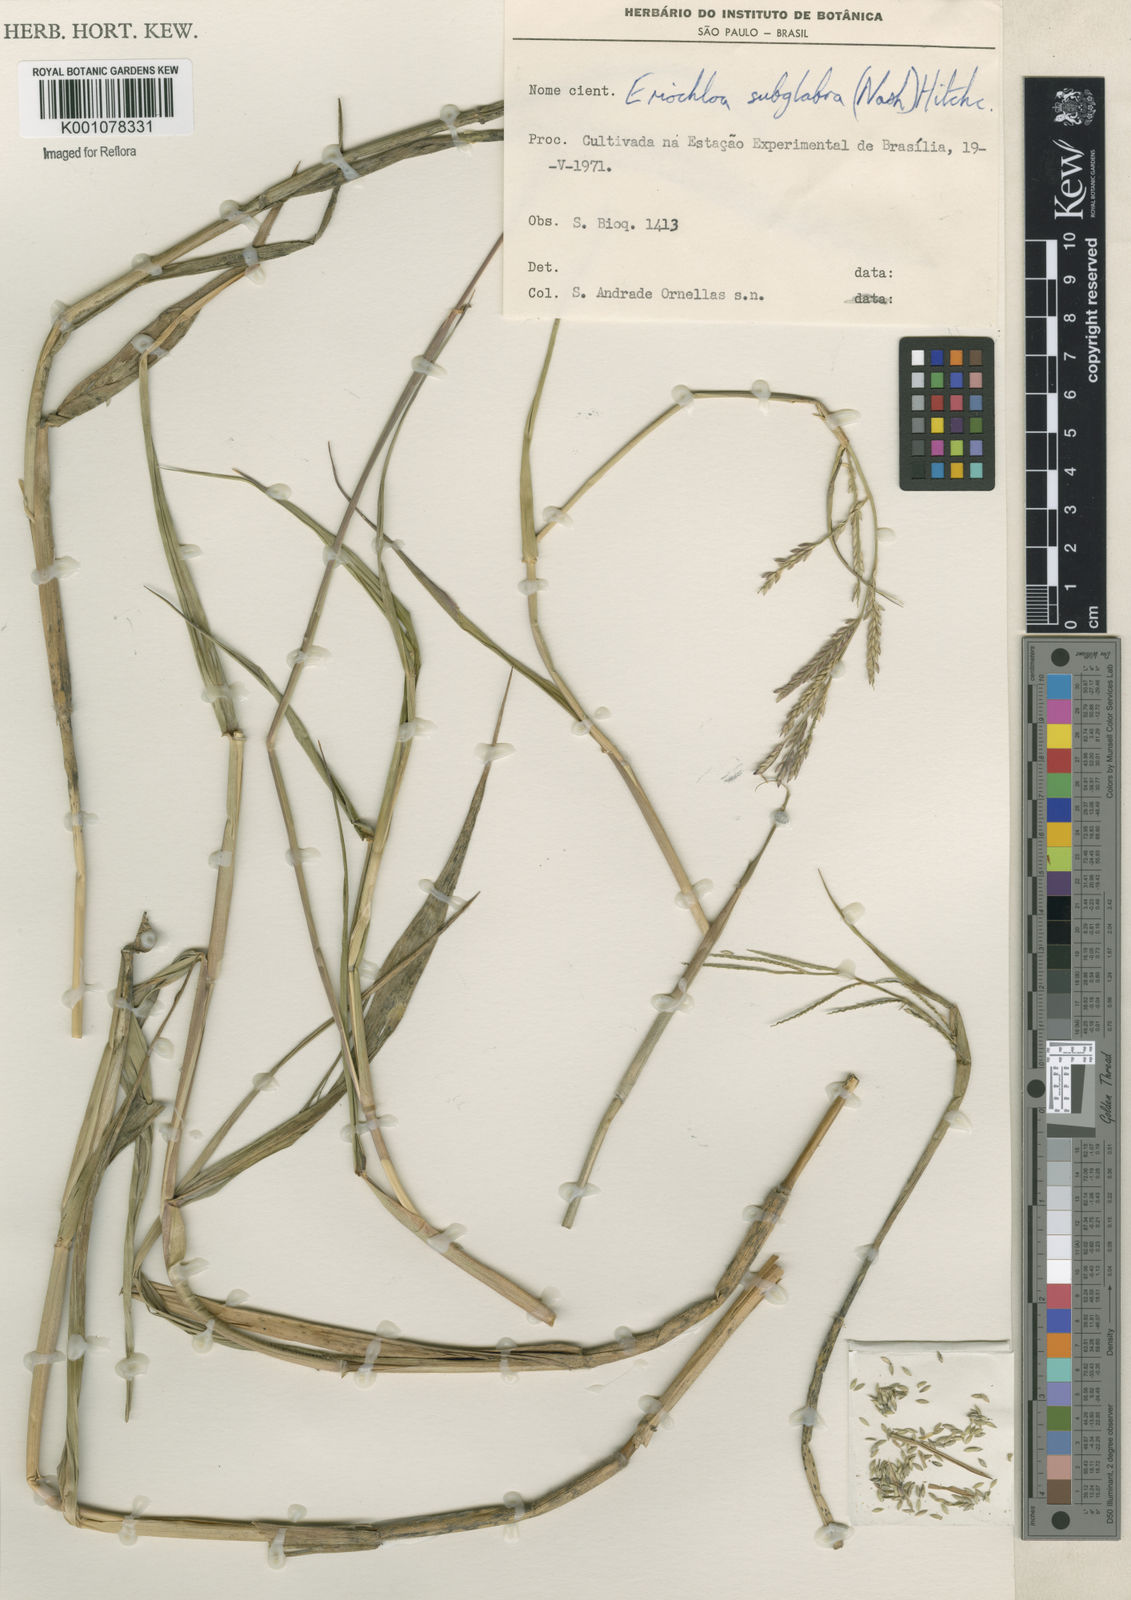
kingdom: Plantae
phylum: Tracheophyta
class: Liliopsida
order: Poales
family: Poaceae
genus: Urochloa
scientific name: Urochloa polystachya
